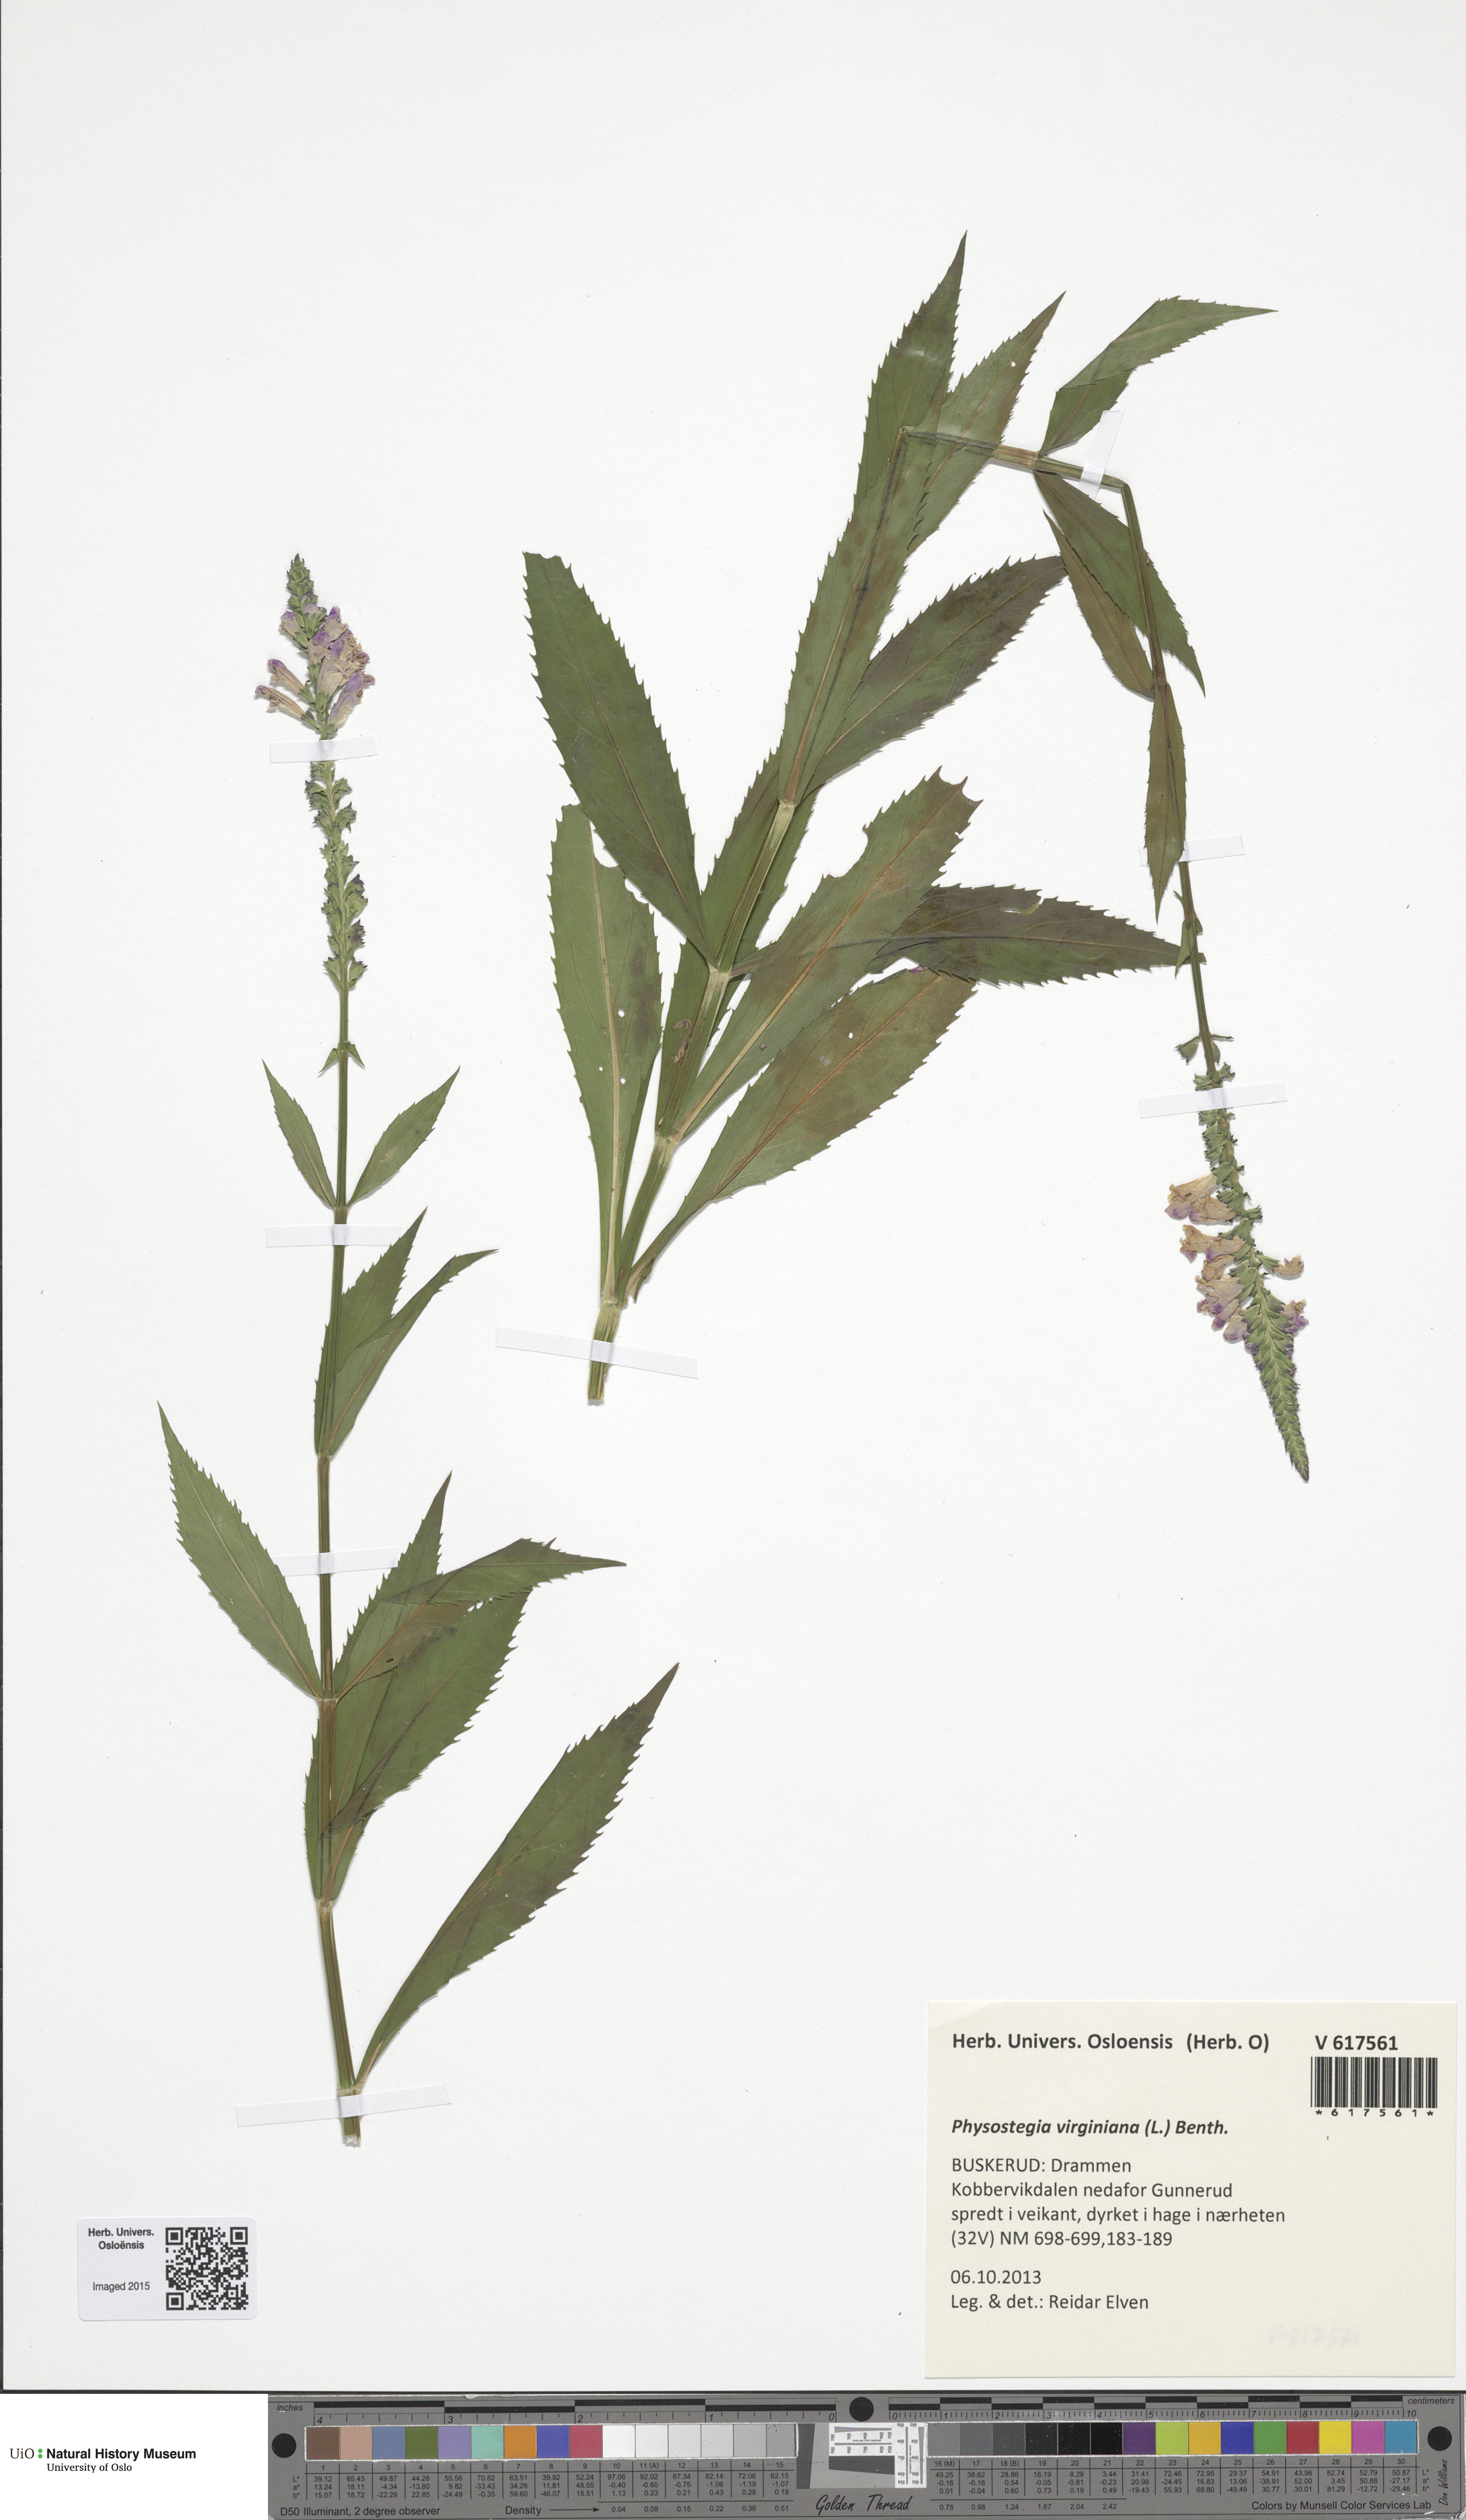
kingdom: Plantae
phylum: Tracheophyta
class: Magnoliopsida
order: Lamiales
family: Lamiaceae
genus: Physostegia
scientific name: Physostegia virginiana
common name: Obedient-plant
